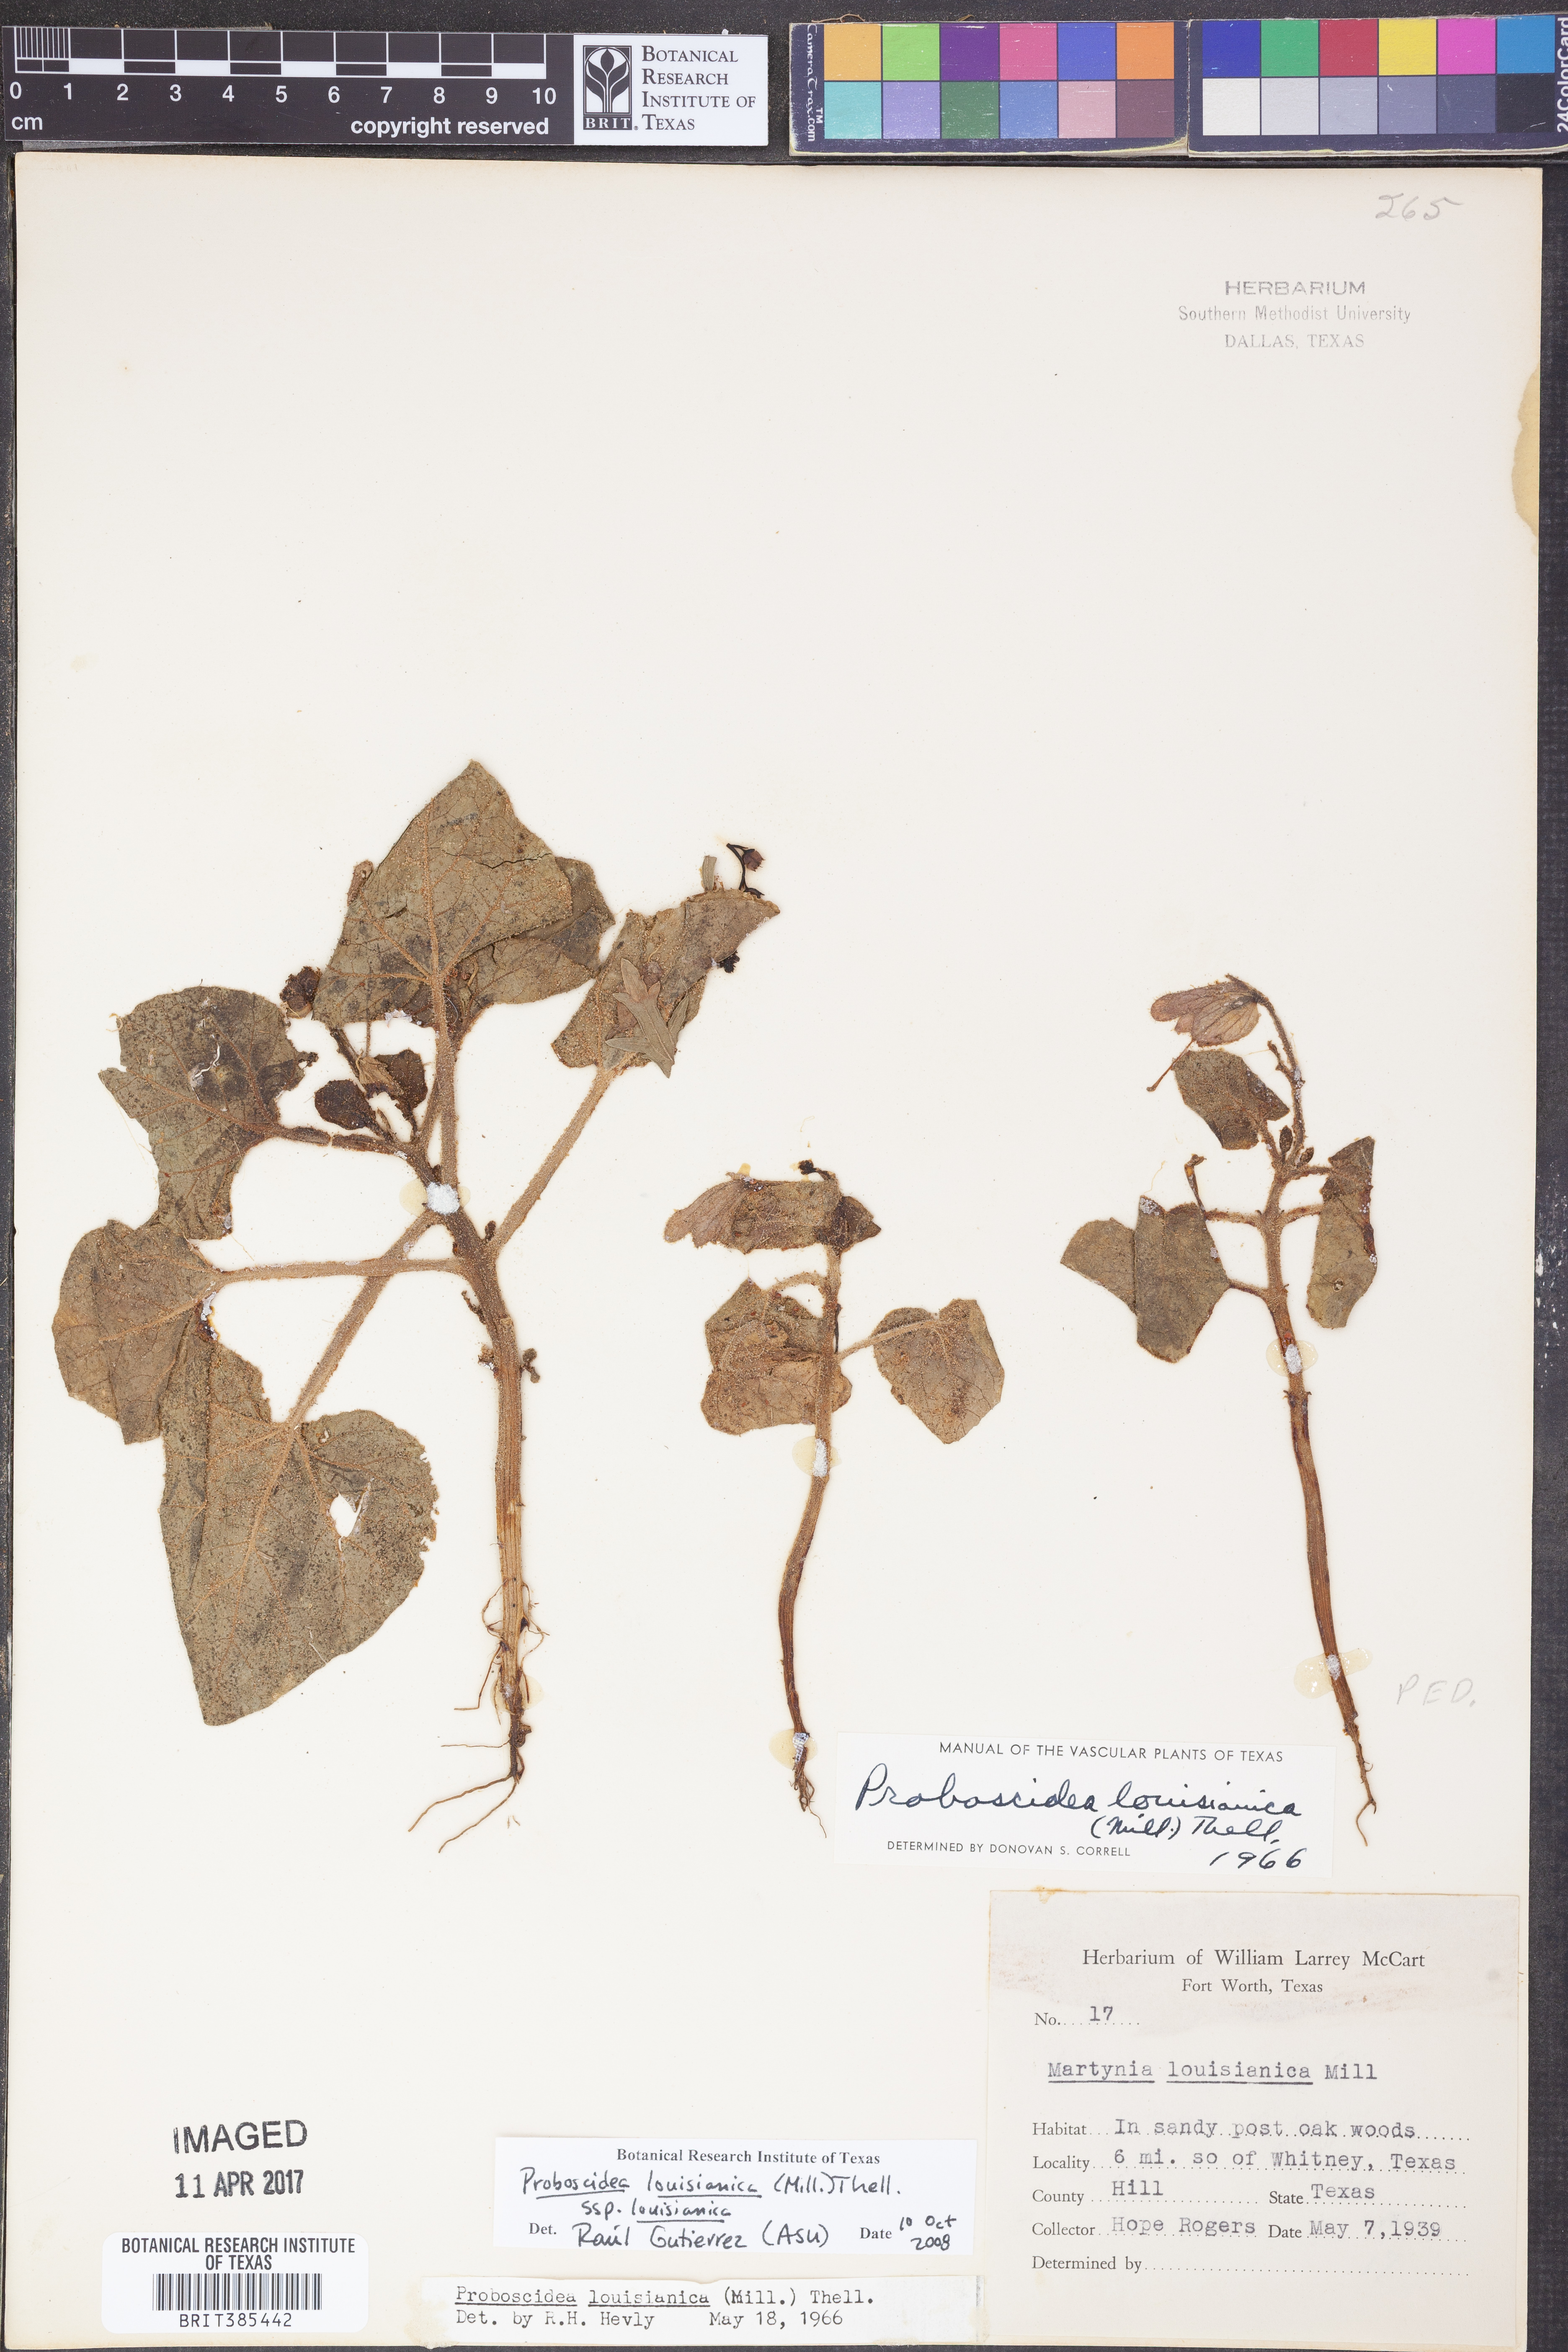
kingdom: Plantae
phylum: Tracheophyta
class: Magnoliopsida
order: Lamiales
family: Martyniaceae
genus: Proboscidea
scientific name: Proboscidea louisianica
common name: Elephant tusks
